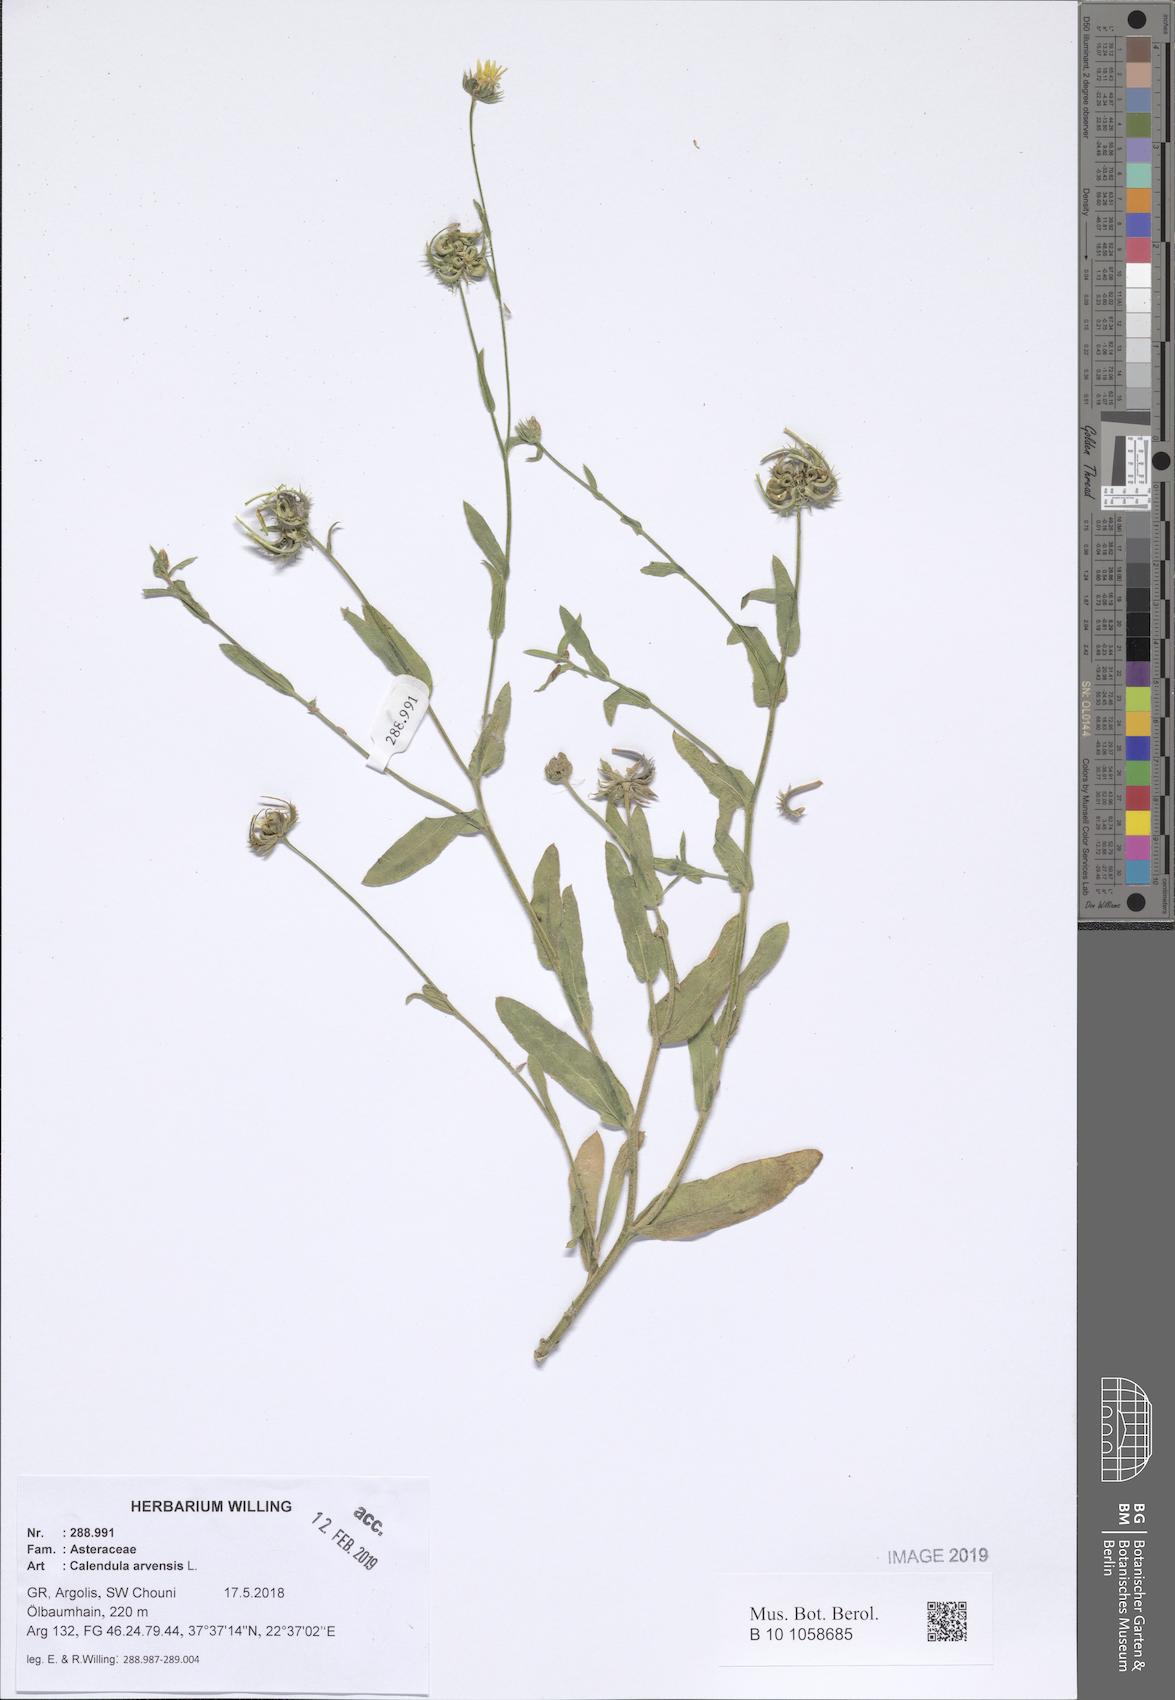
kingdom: Plantae
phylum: Tracheophyta
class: Magnoliopsida
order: Asterales
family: Asteraceae
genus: Calendula
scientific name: Calendula arvensis
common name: Field marigold
